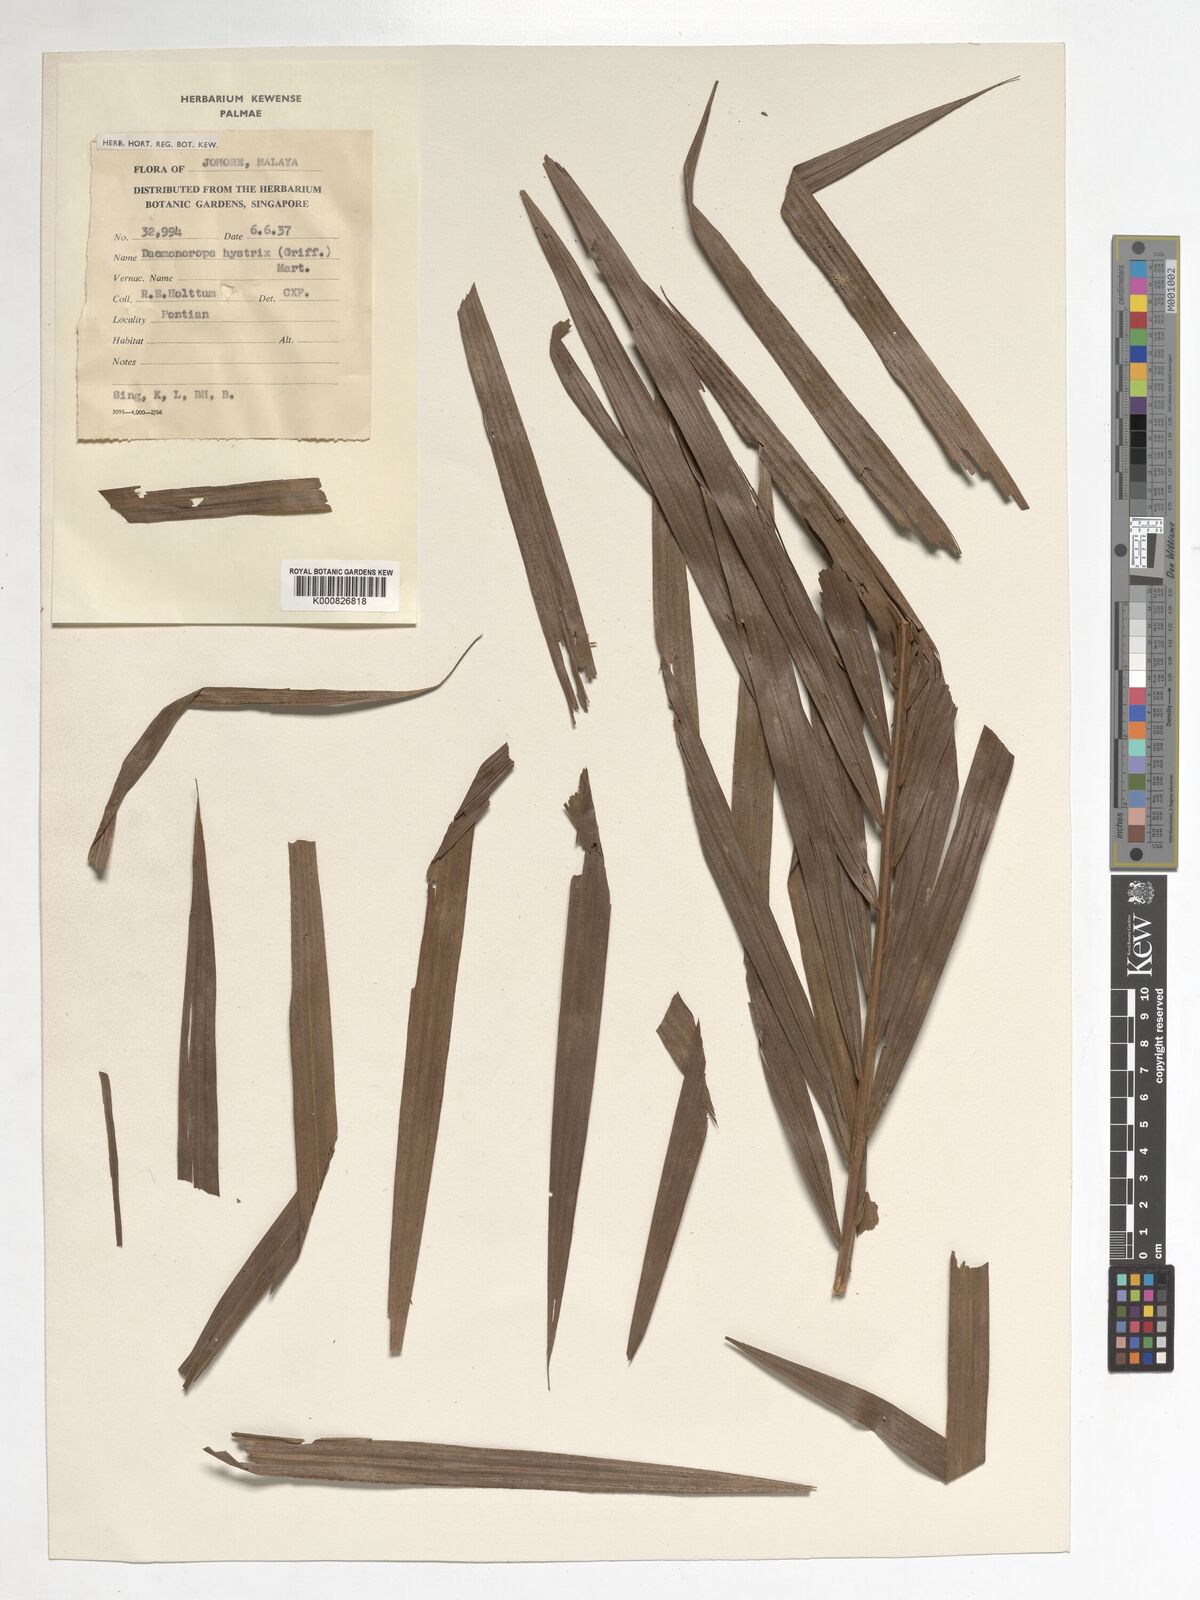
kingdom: Plantae
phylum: Tracheophyta
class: Liliopsida
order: Arecales
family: Arecaceae
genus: Calamus
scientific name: Calamus hirsutus
